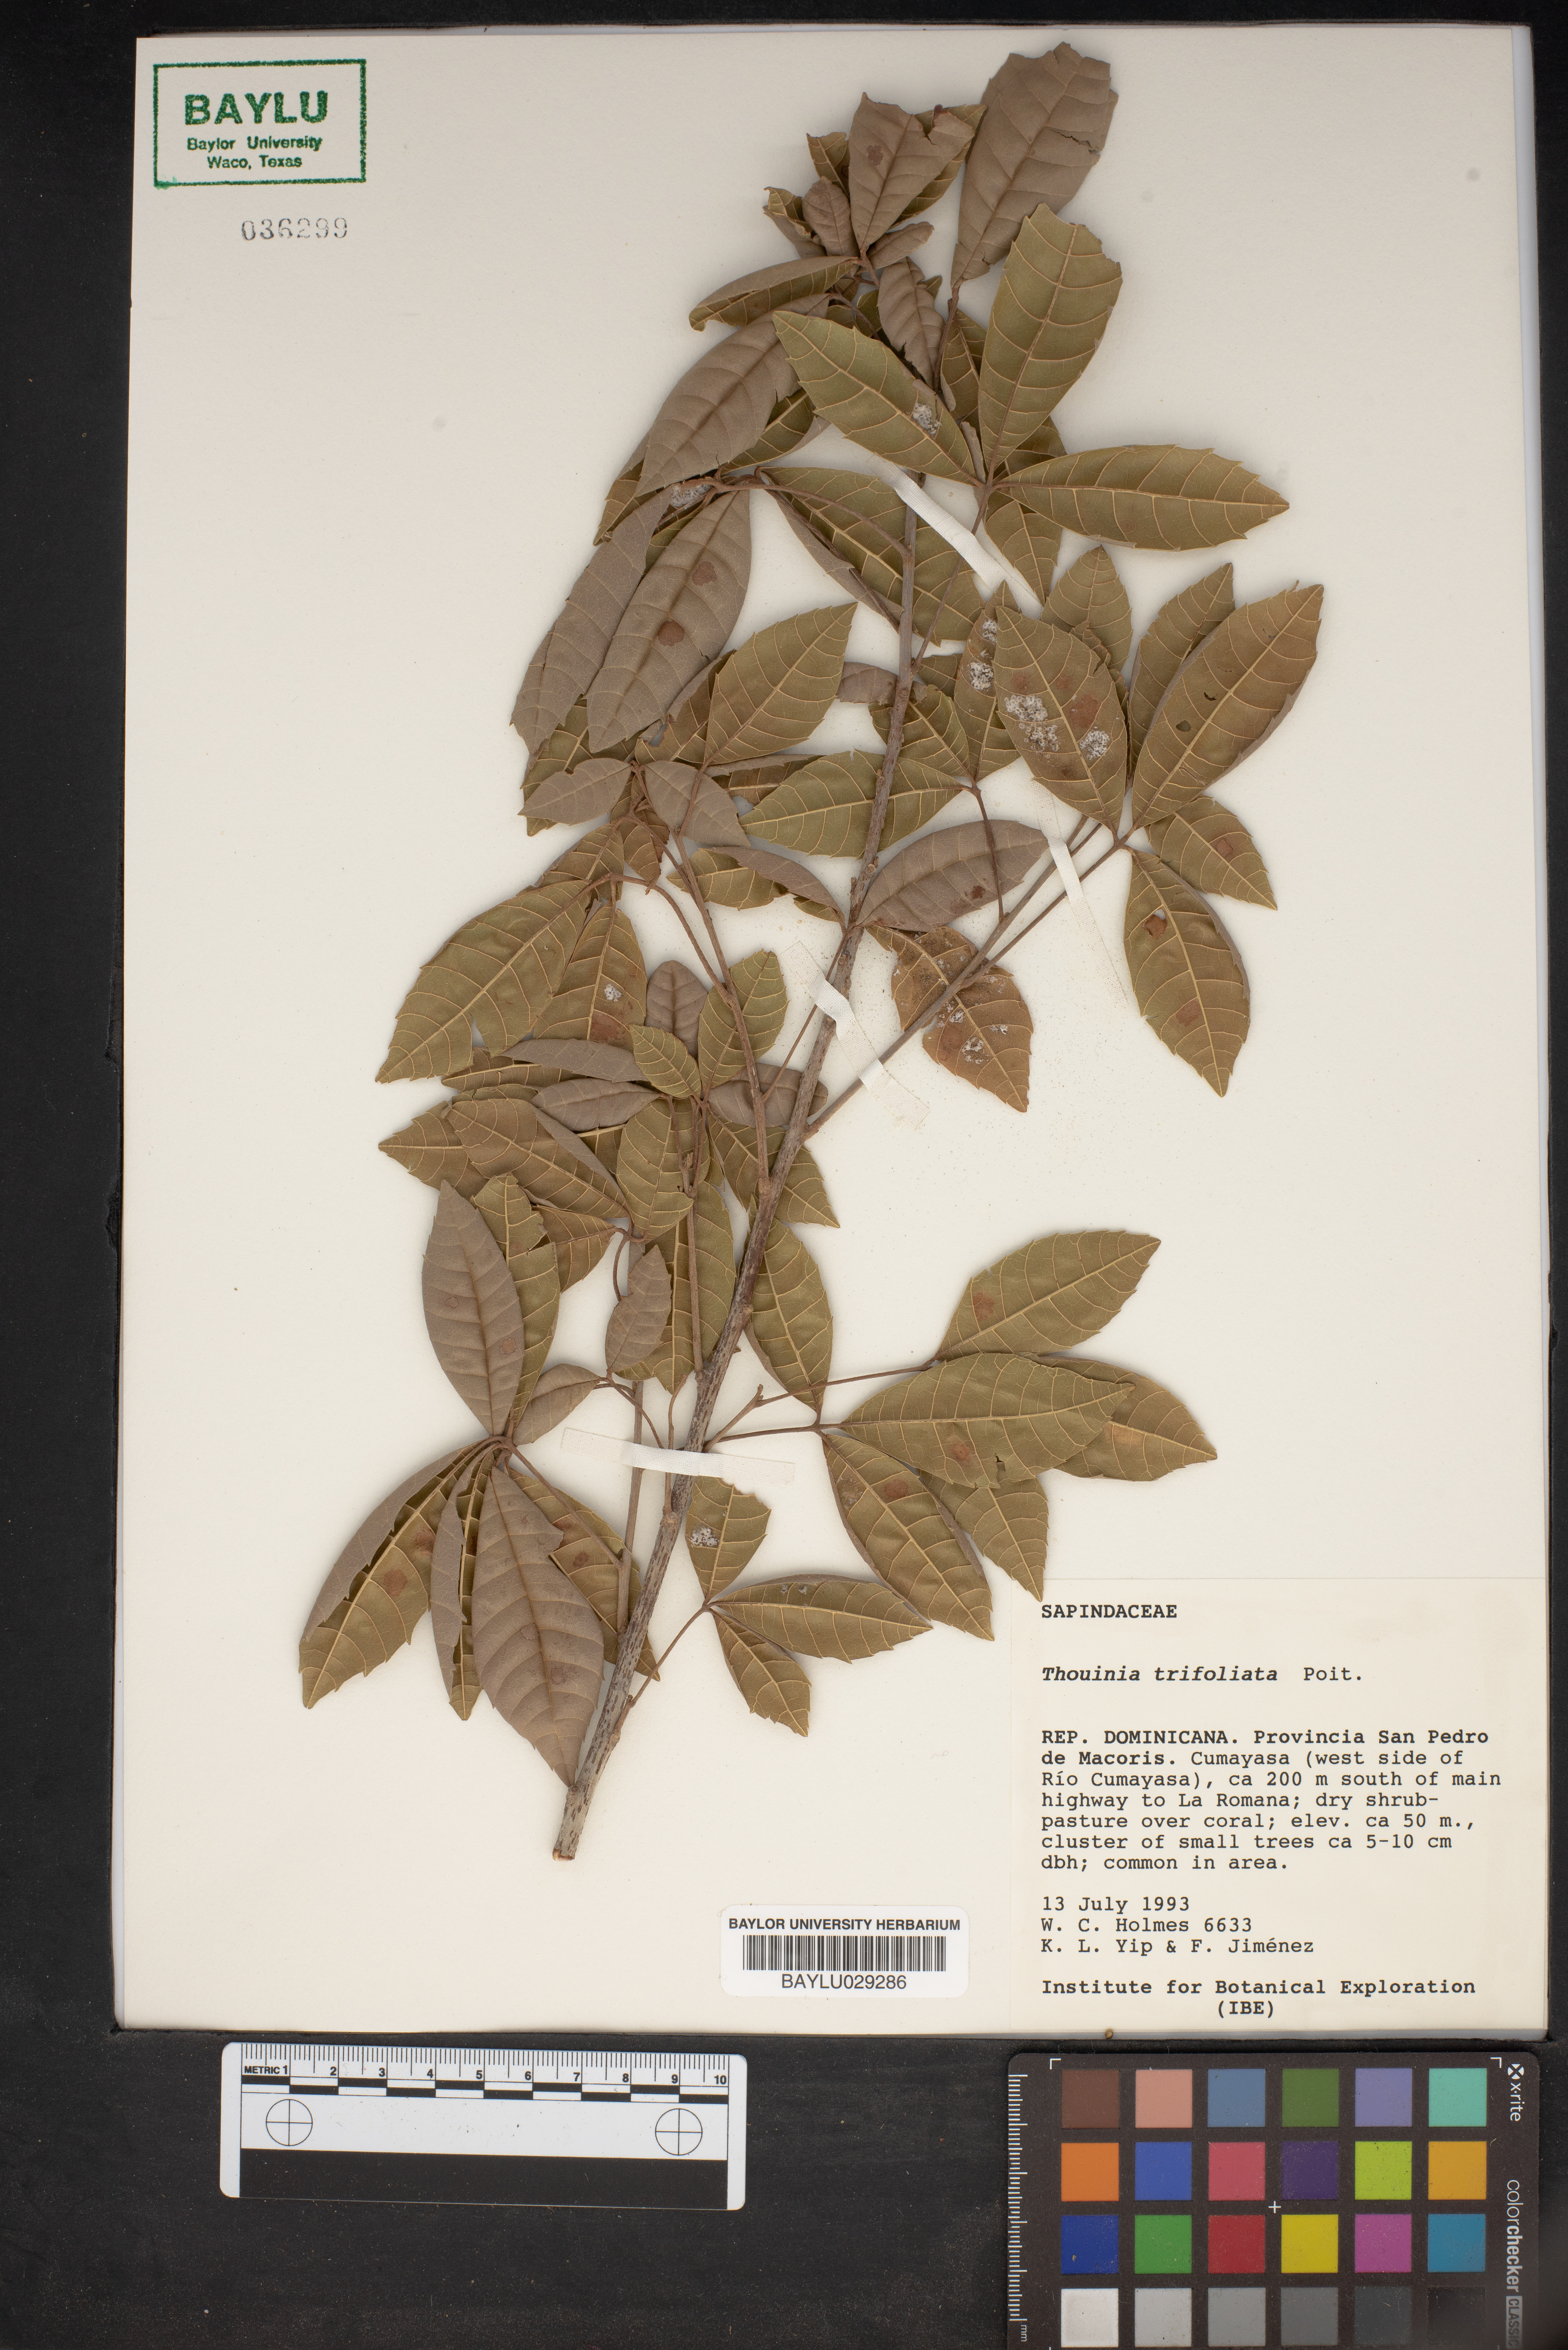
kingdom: Plantae
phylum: Tracheophyta
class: Magnoliopsida
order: Sapindales
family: Sapindaceae
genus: Thouinia
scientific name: Thouinia trifoliata
